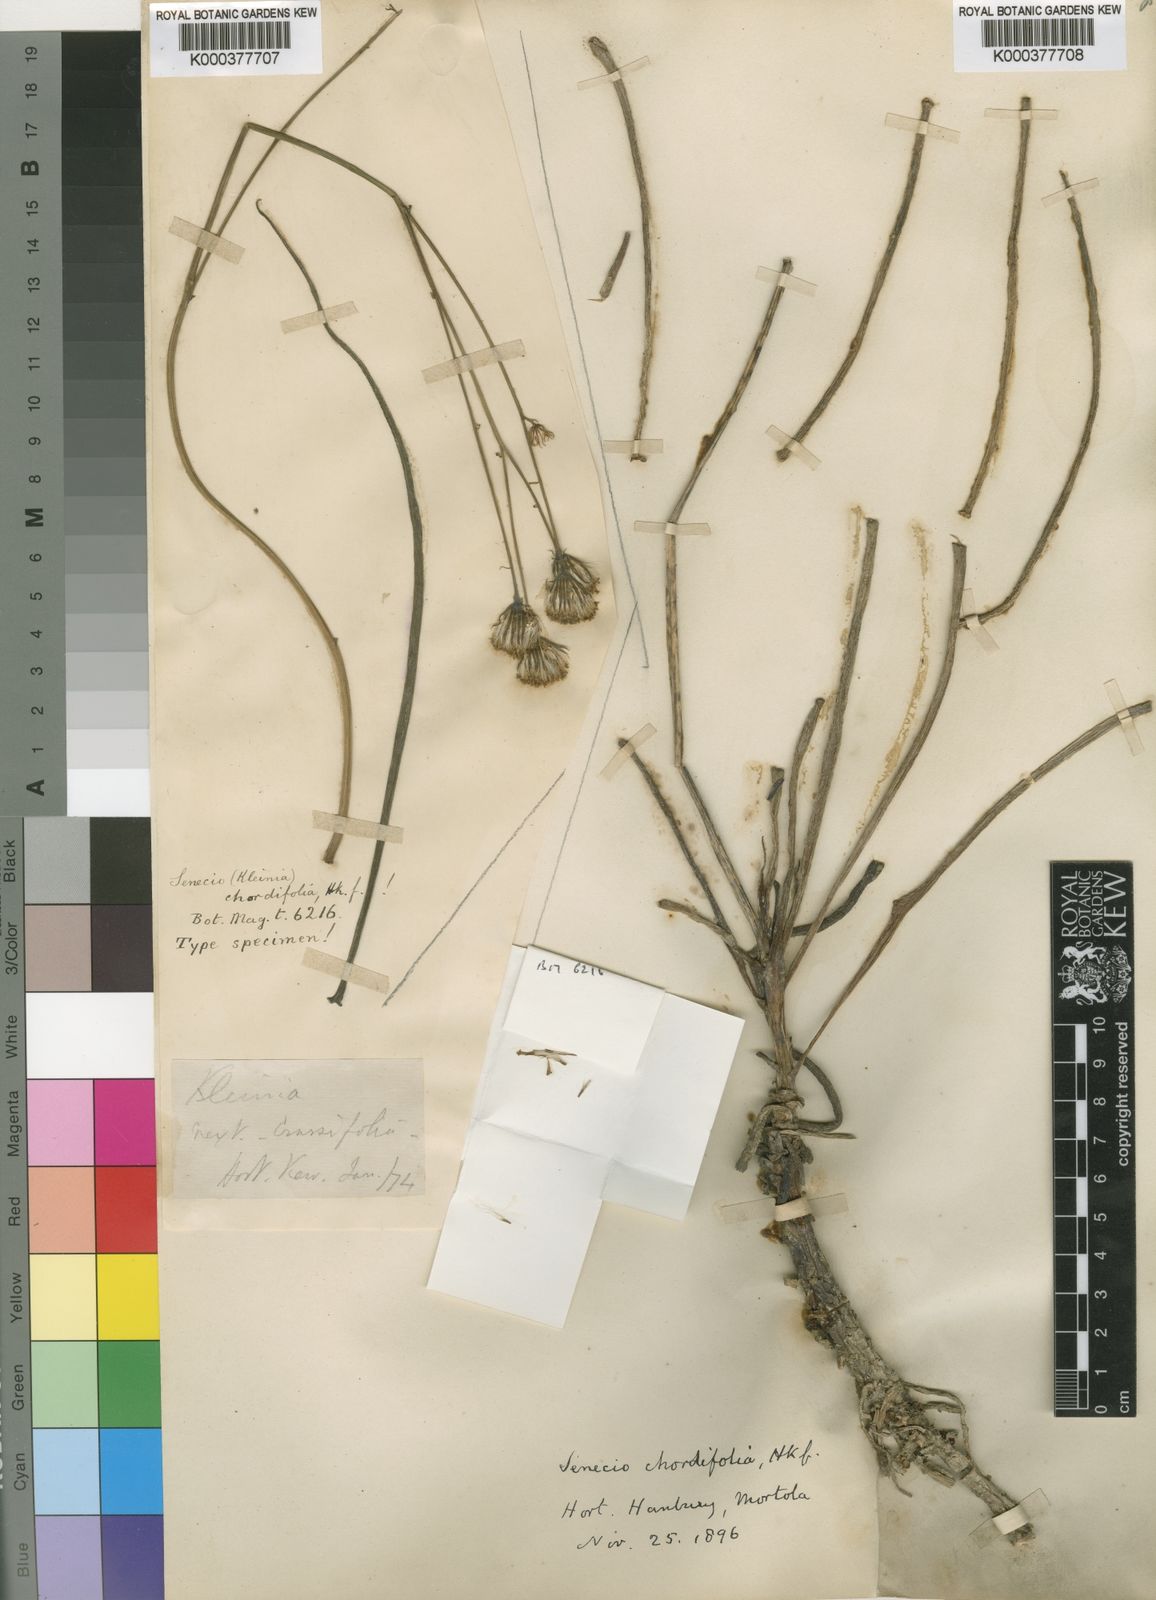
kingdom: Plantae
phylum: Tracheophyta
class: Magnoliopsida
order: Asterales
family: Asteraceae
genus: Curio
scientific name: Curio talinoides
